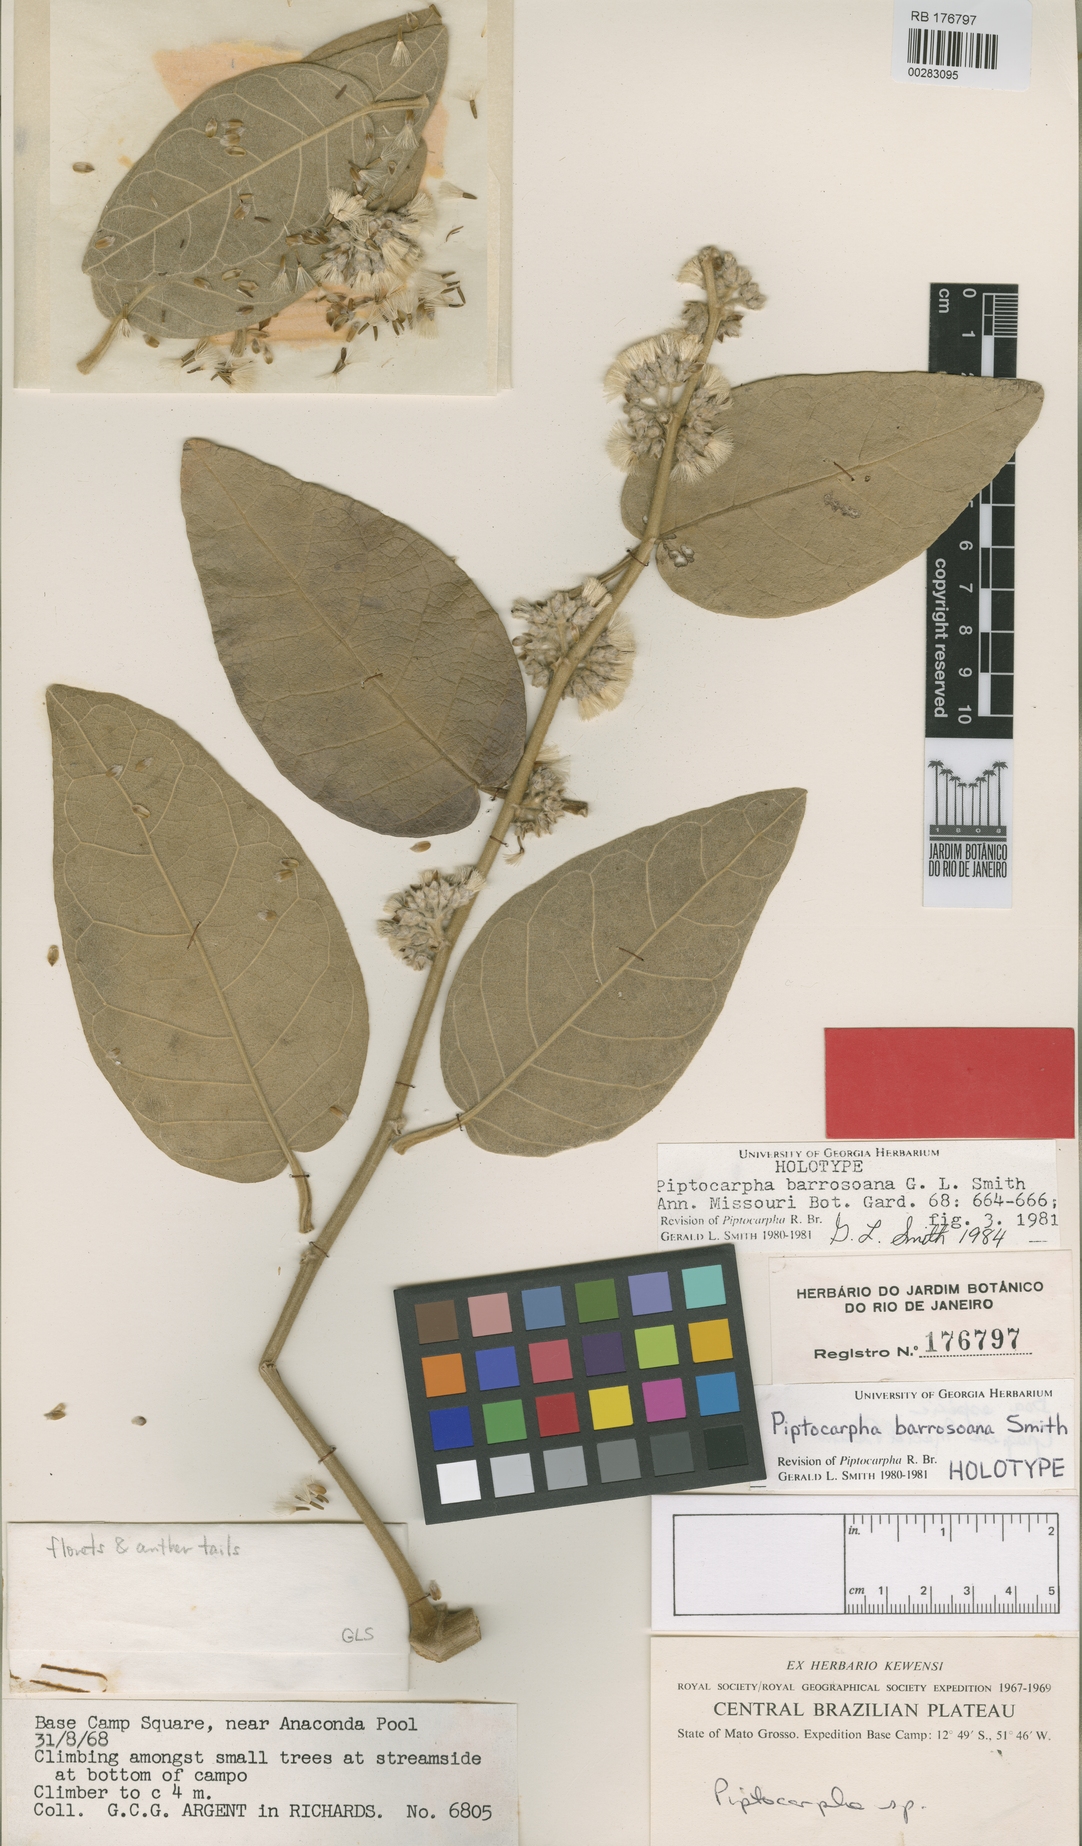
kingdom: Plantae
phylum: Tracheophyta
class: Magnoliopsida
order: Asterales
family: Asteraceae
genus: Piptocarpha
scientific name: Piptocarpha barrosoana
